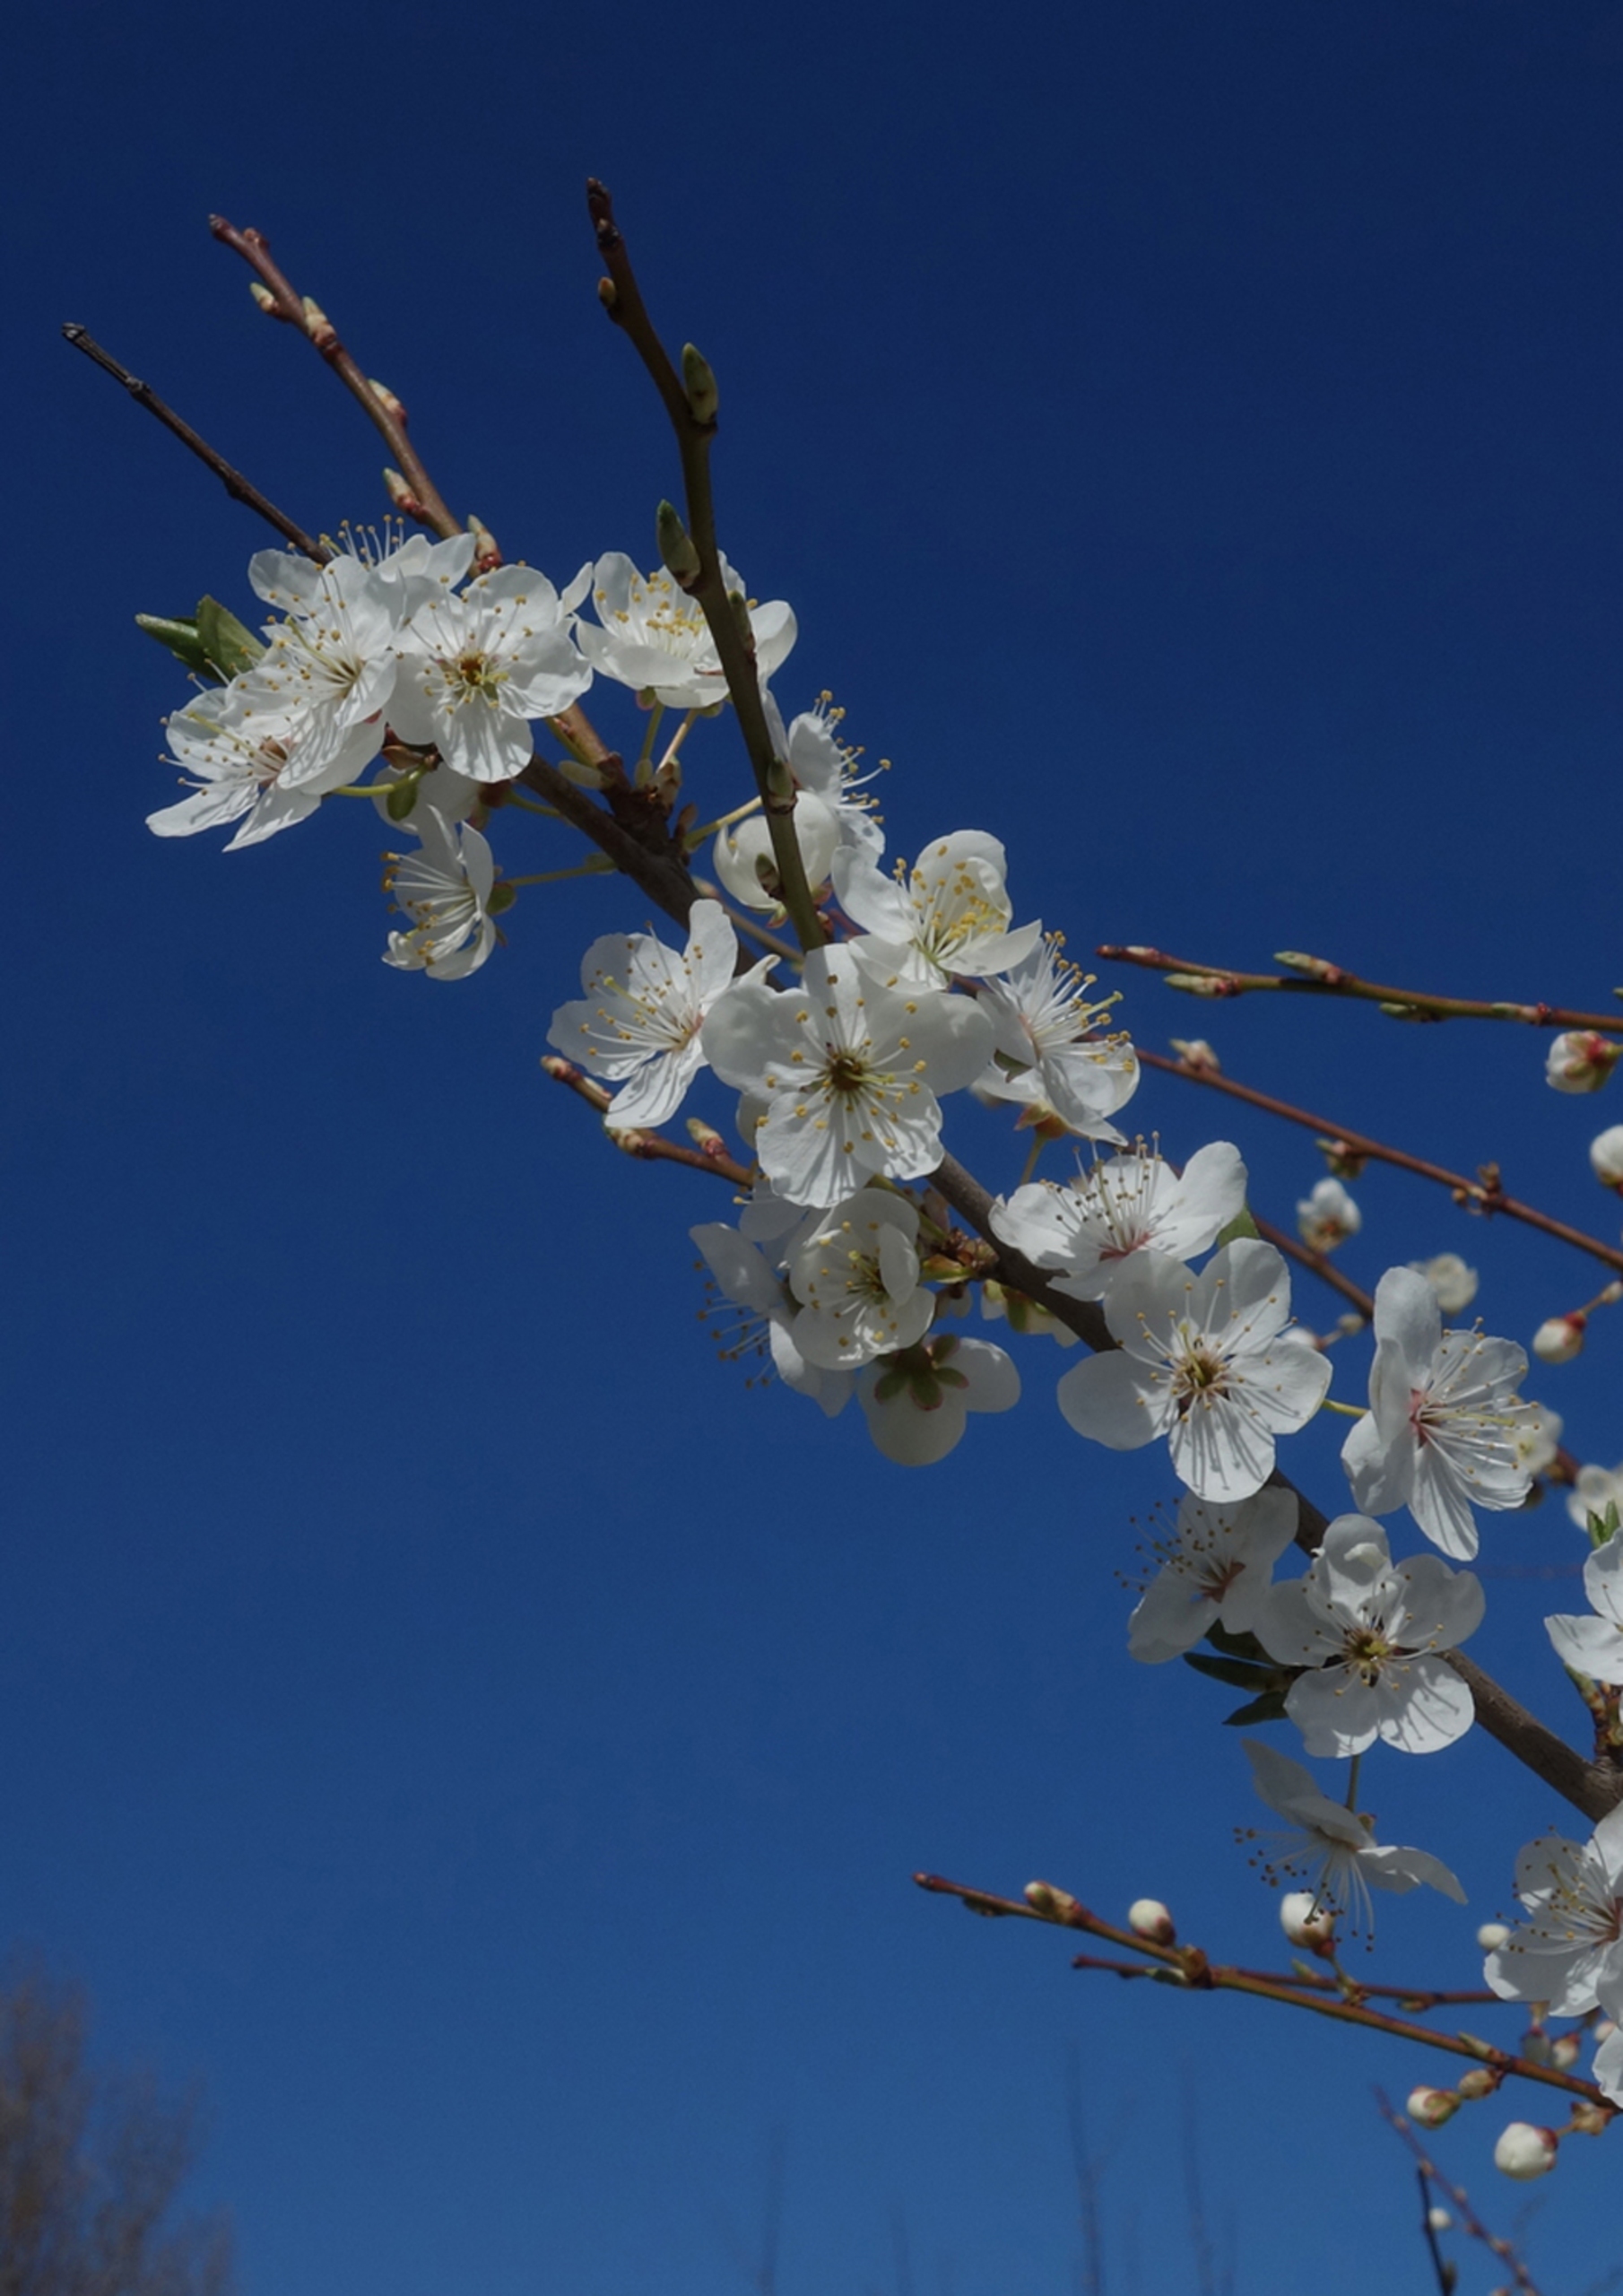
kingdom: Plantae
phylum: Tracheophyta
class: Magnoliopsida
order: Rosales
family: Rosaceae
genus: Prunus
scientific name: Prunus cerasifera
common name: Mirabel
